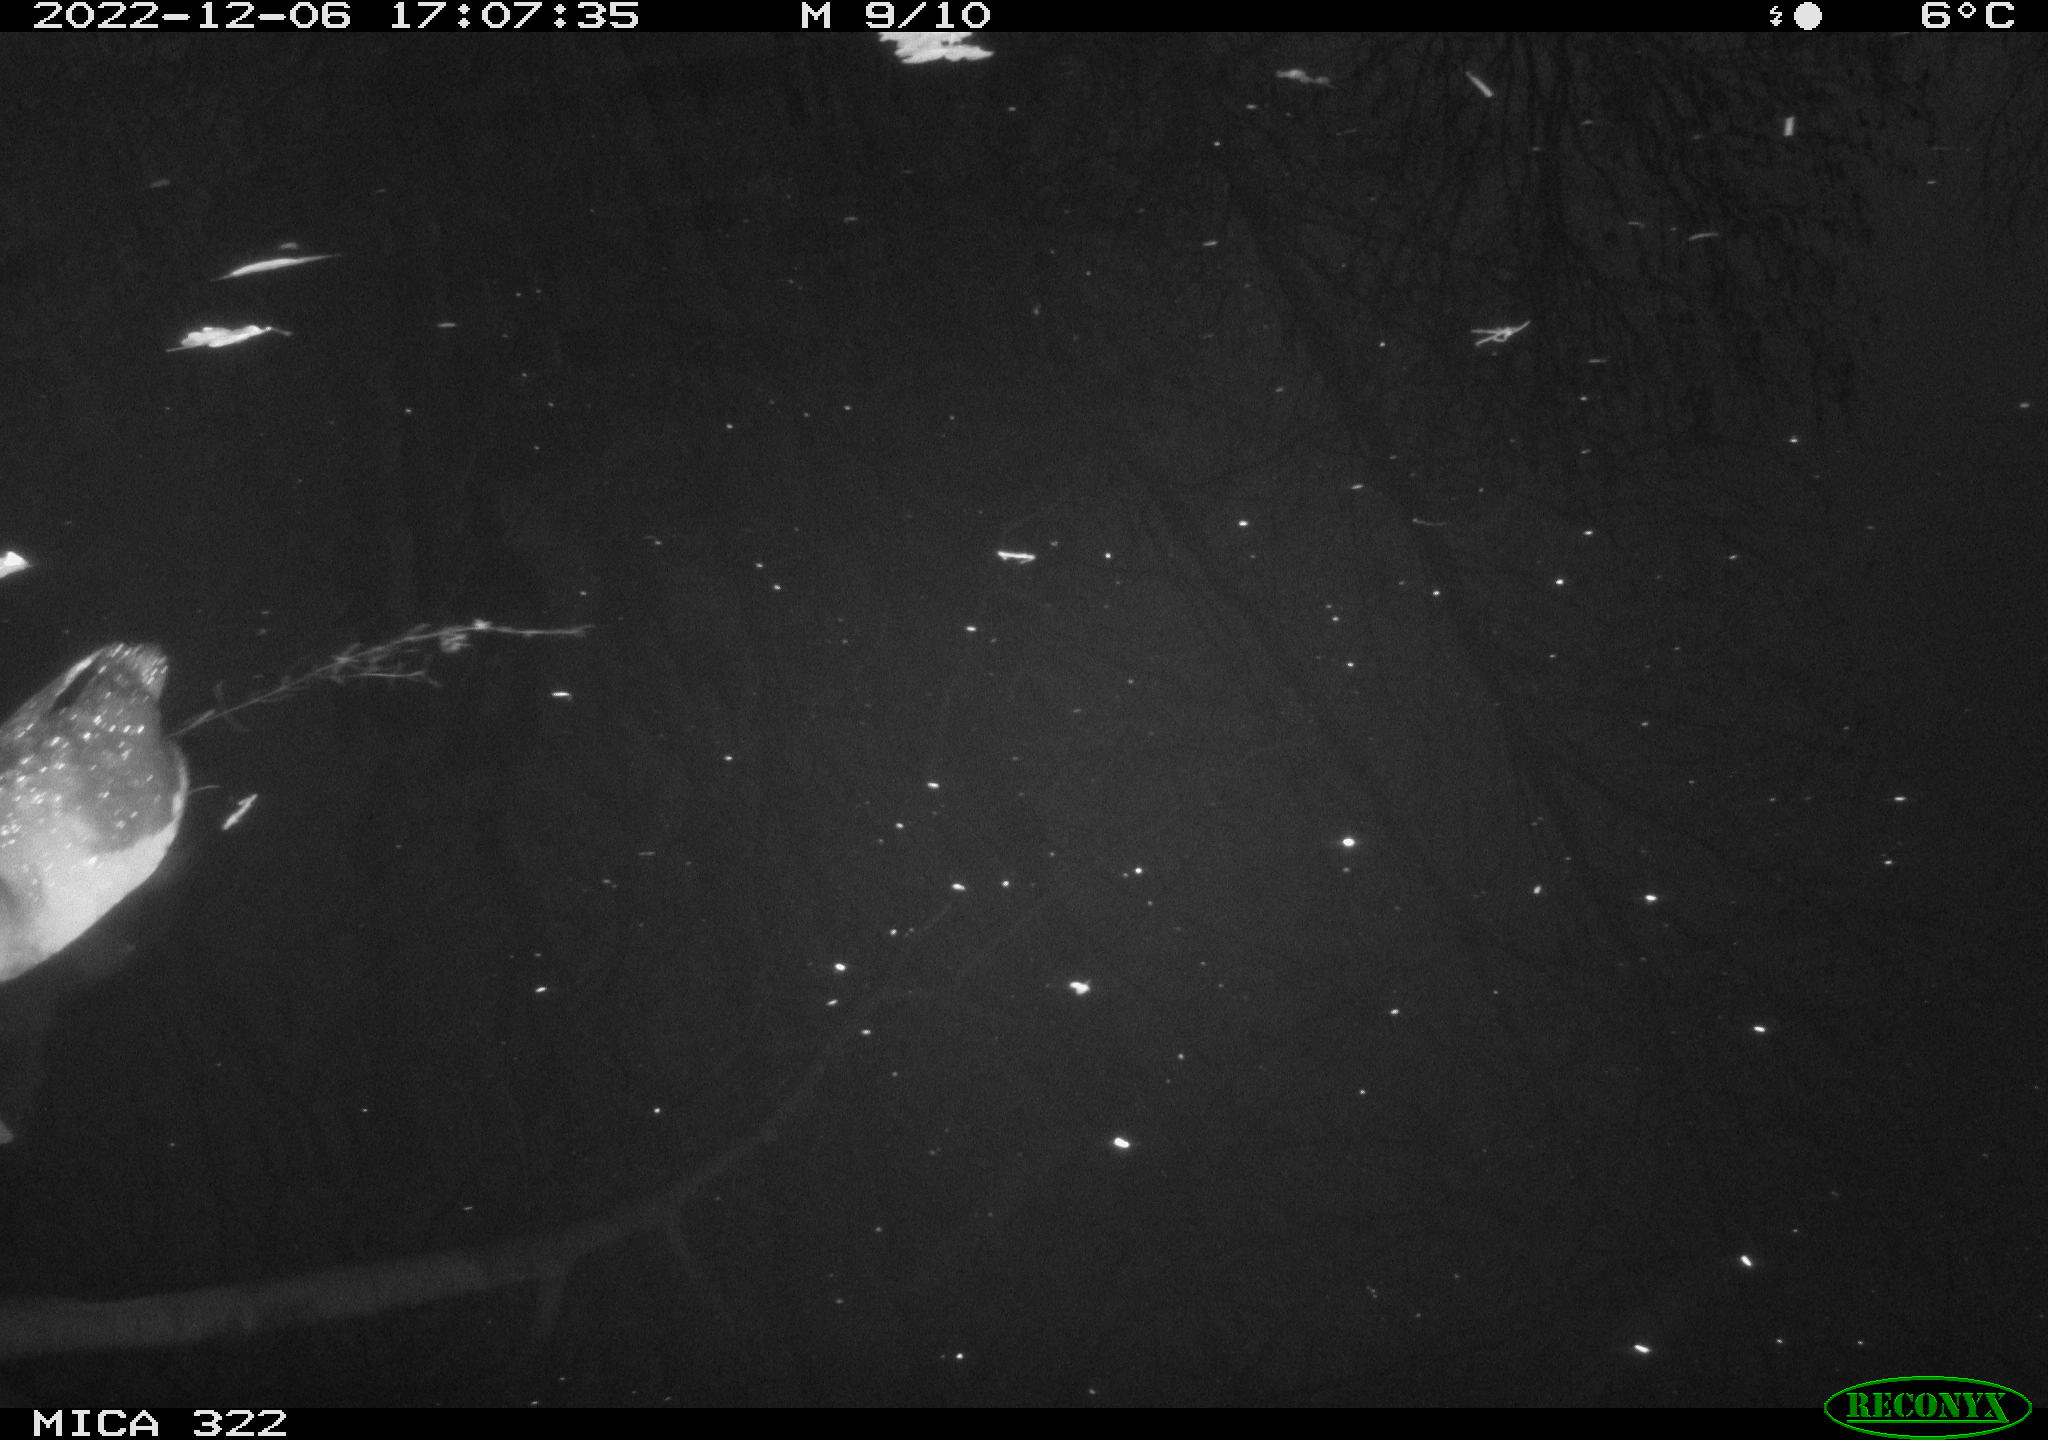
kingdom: Animalia
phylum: Chordata
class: Aves
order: Anseriformes
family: Anatidae
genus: Anas
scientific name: Anas
